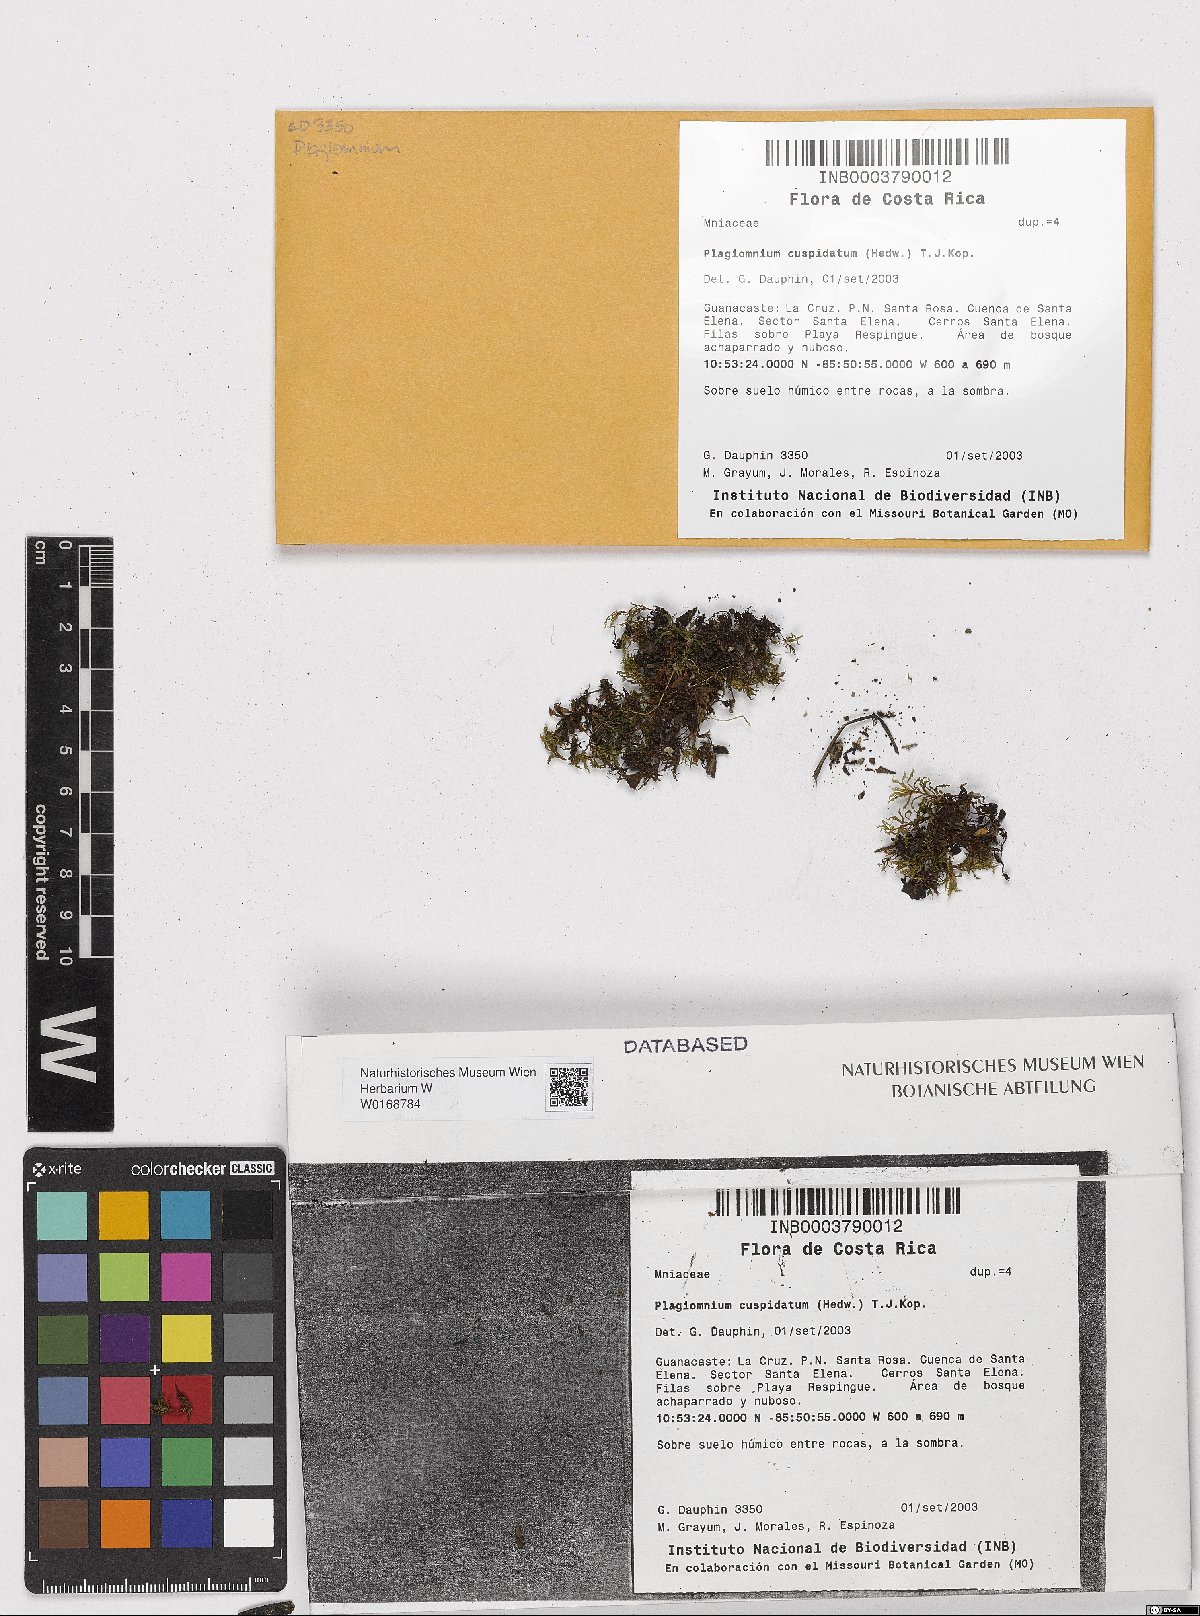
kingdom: Plantae
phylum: Bryophyta
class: Bryopsida
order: Bryales
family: Mniaceae
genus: Plagiomnium
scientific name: Plagiomnium cuspidatum
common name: Woodsy leafy moss
